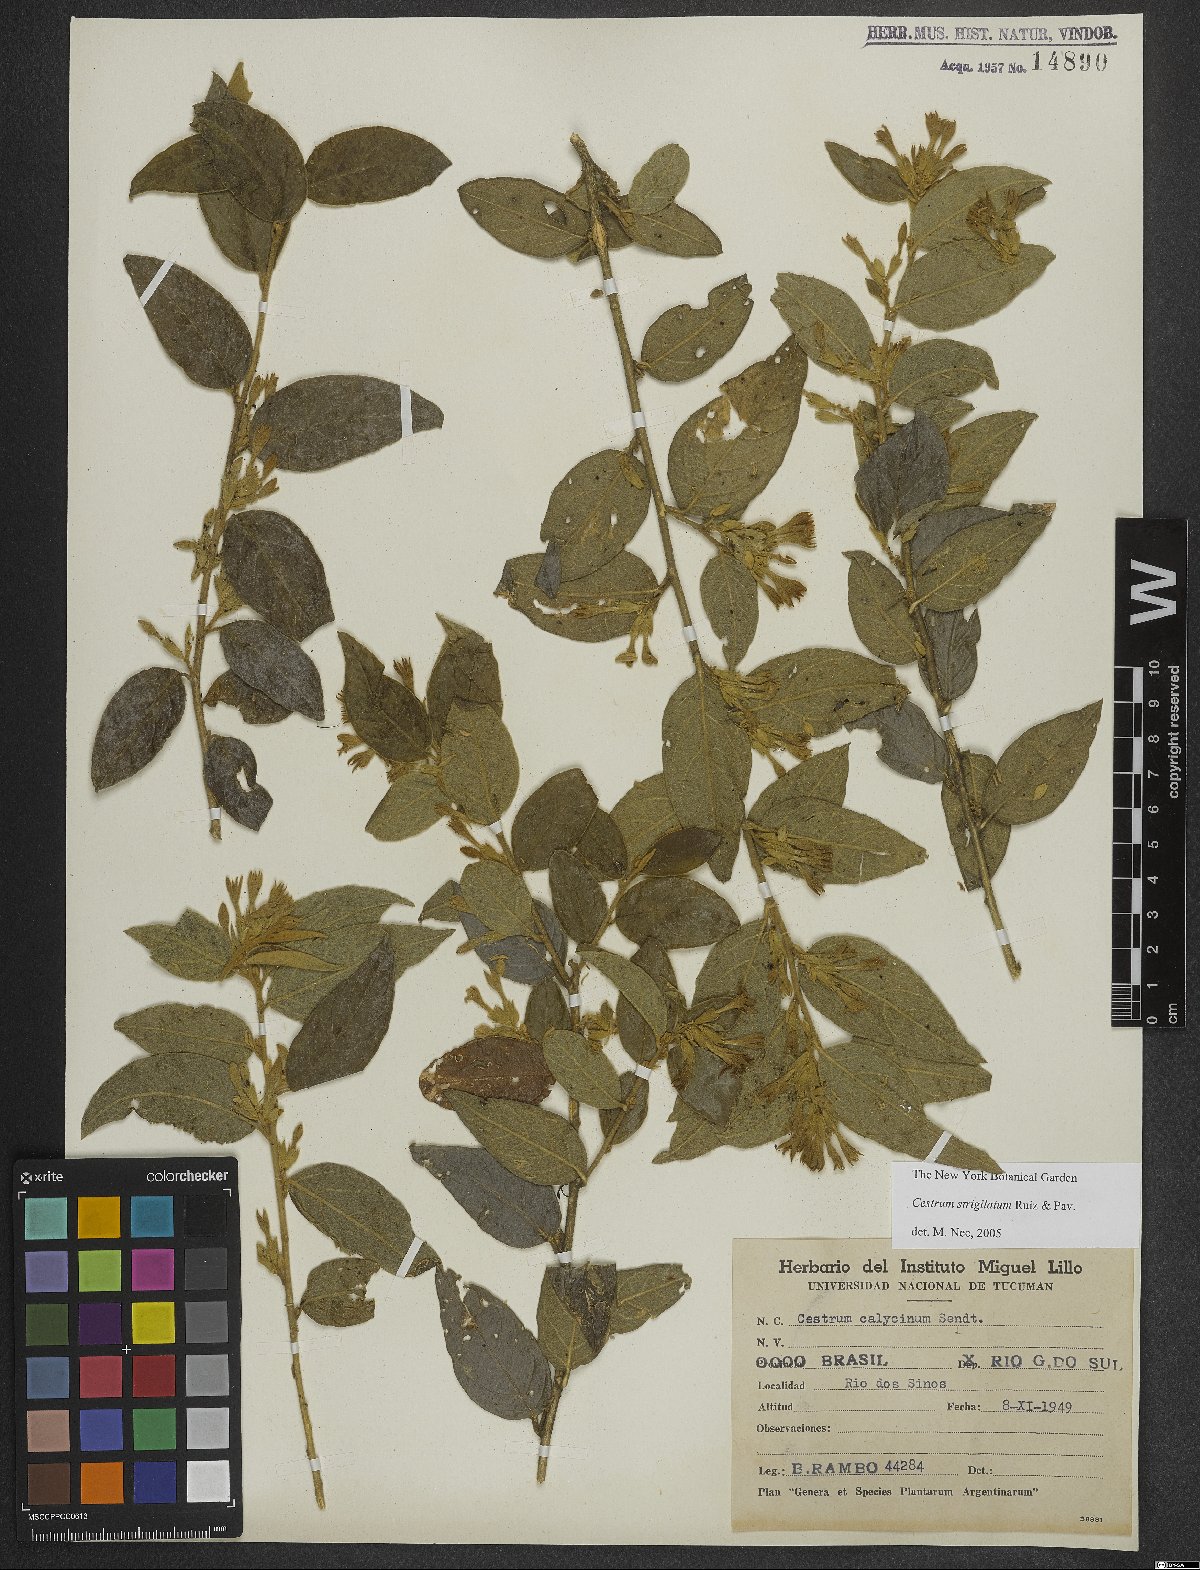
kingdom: Plantae
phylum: Tracheophyta
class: Magnoliopsida
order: Solanales
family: Solanaceae
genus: Cestrum
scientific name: Cestrum strigillatum
